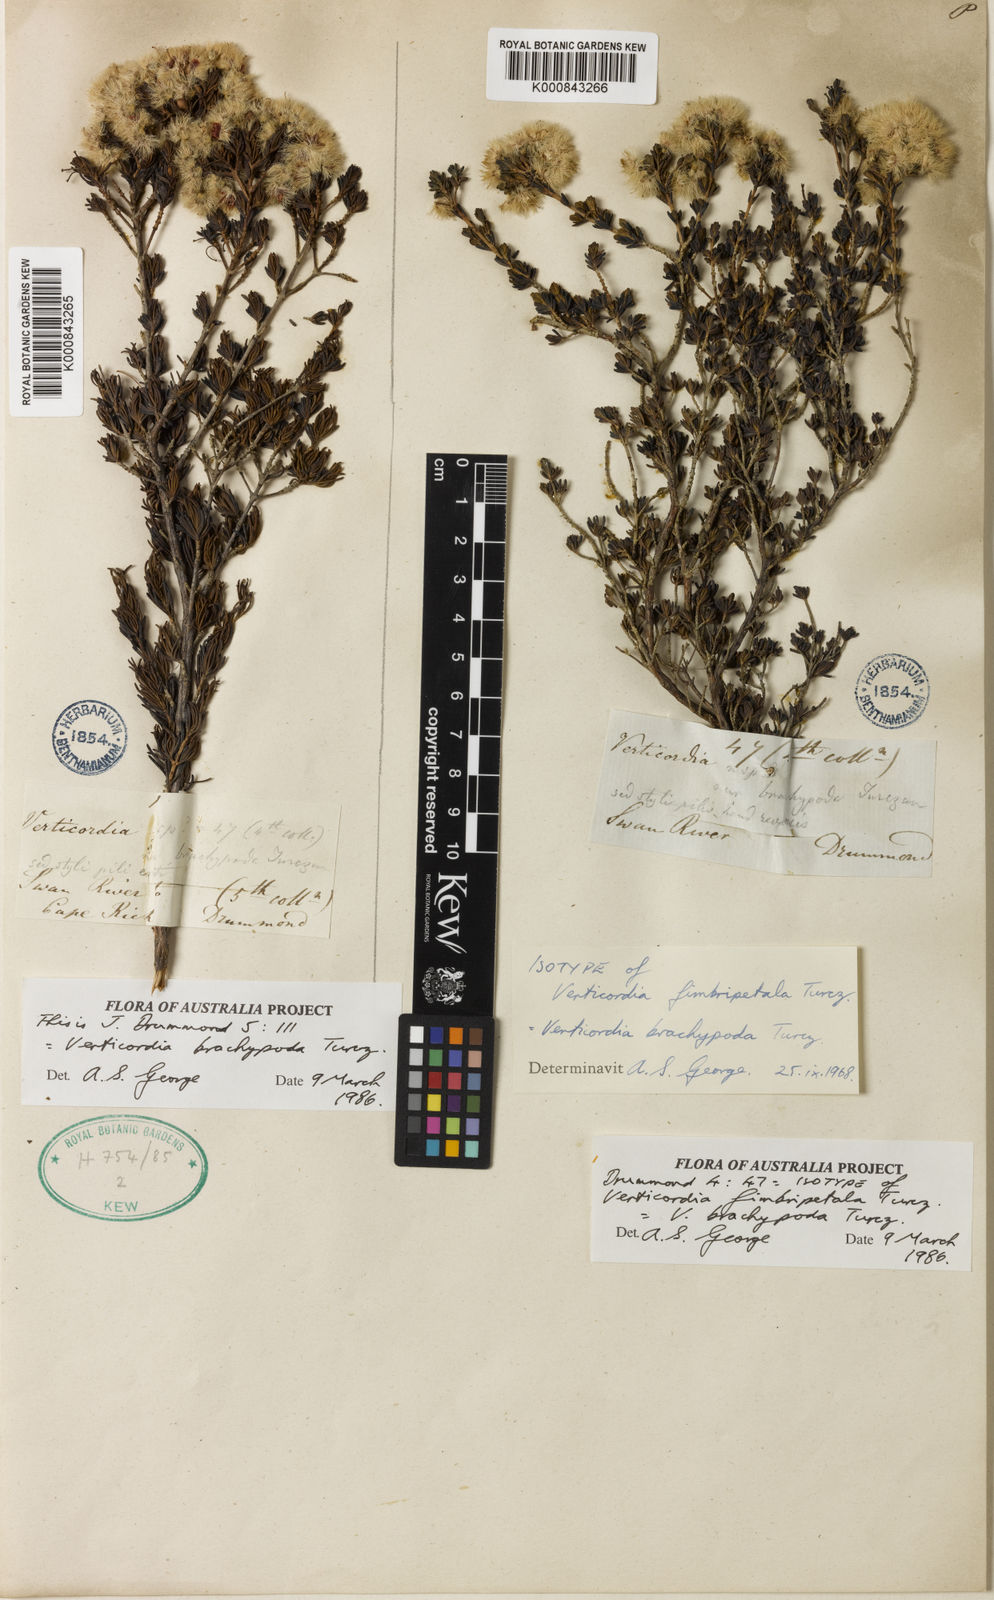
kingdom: Plantae
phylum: Tracheophyta
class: Magnoliopsida
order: Myrtales
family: Myrtaceae
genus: Verticordia
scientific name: Verticordia brachypoda
